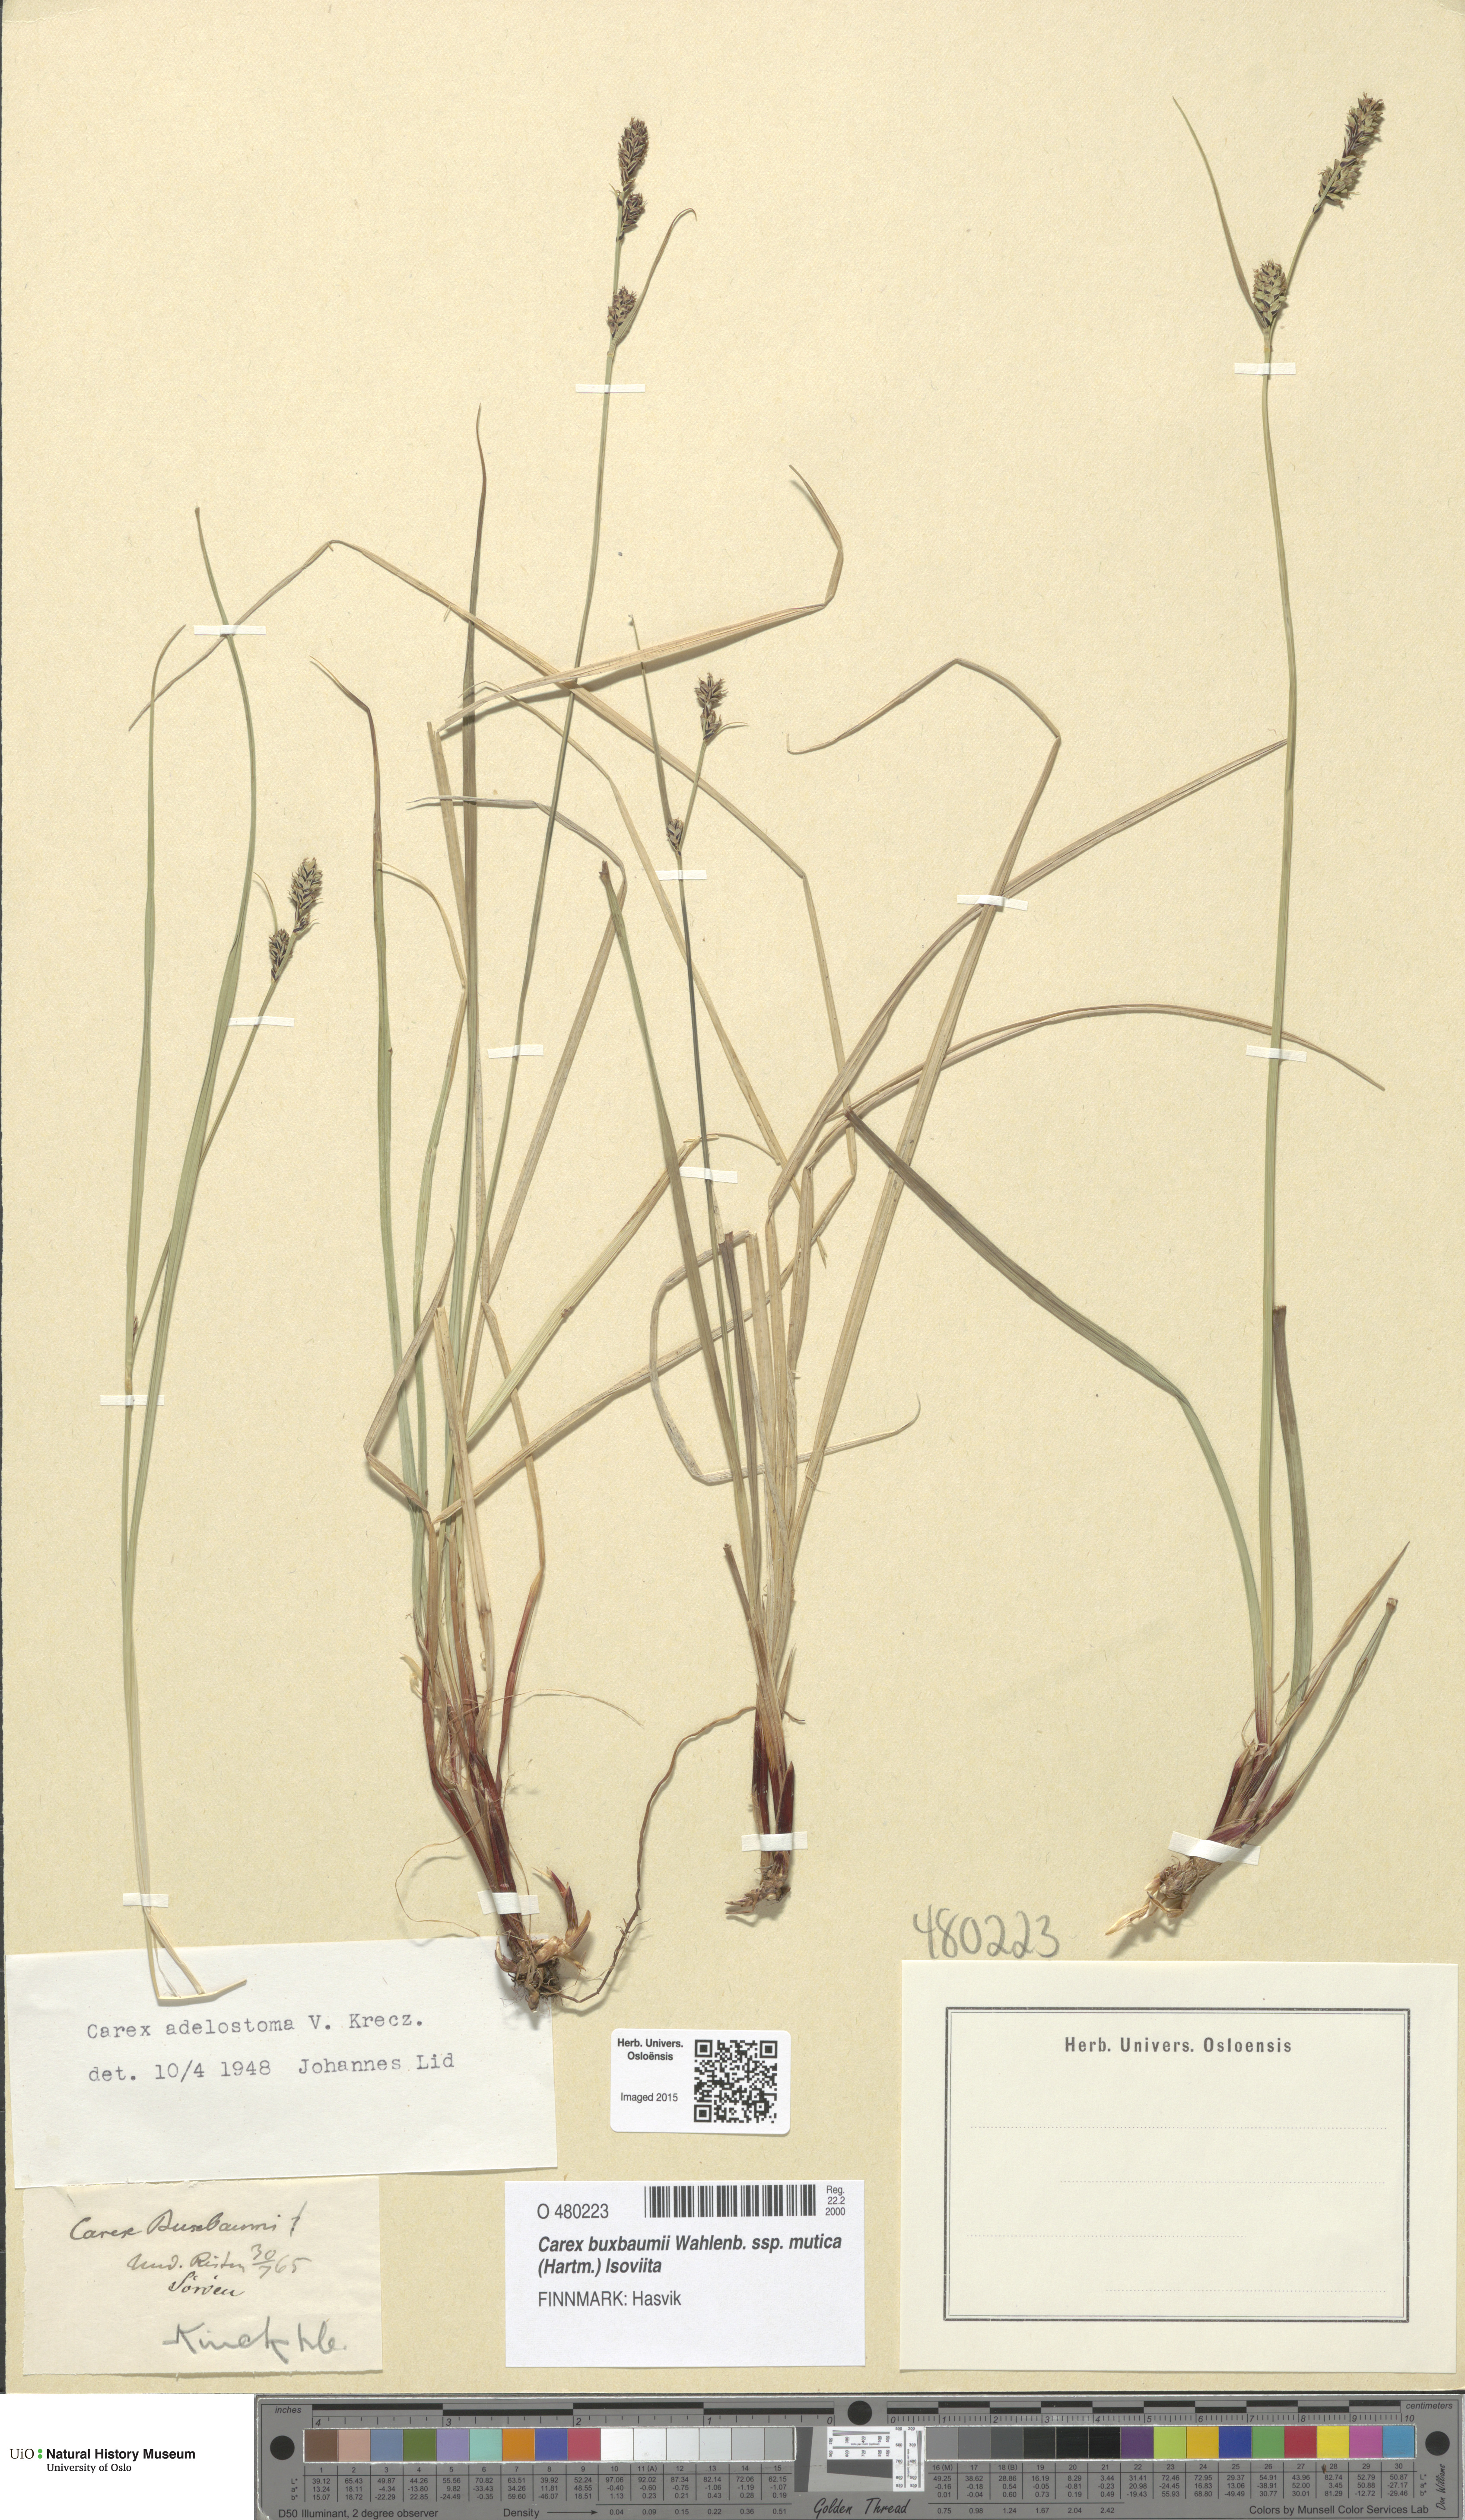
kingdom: Plantae
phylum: Tracheophyta
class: Liliopsida
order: Poales
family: Cyperaceae
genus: Carex
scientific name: Carex adelostoma
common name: Circumpolar sedge
